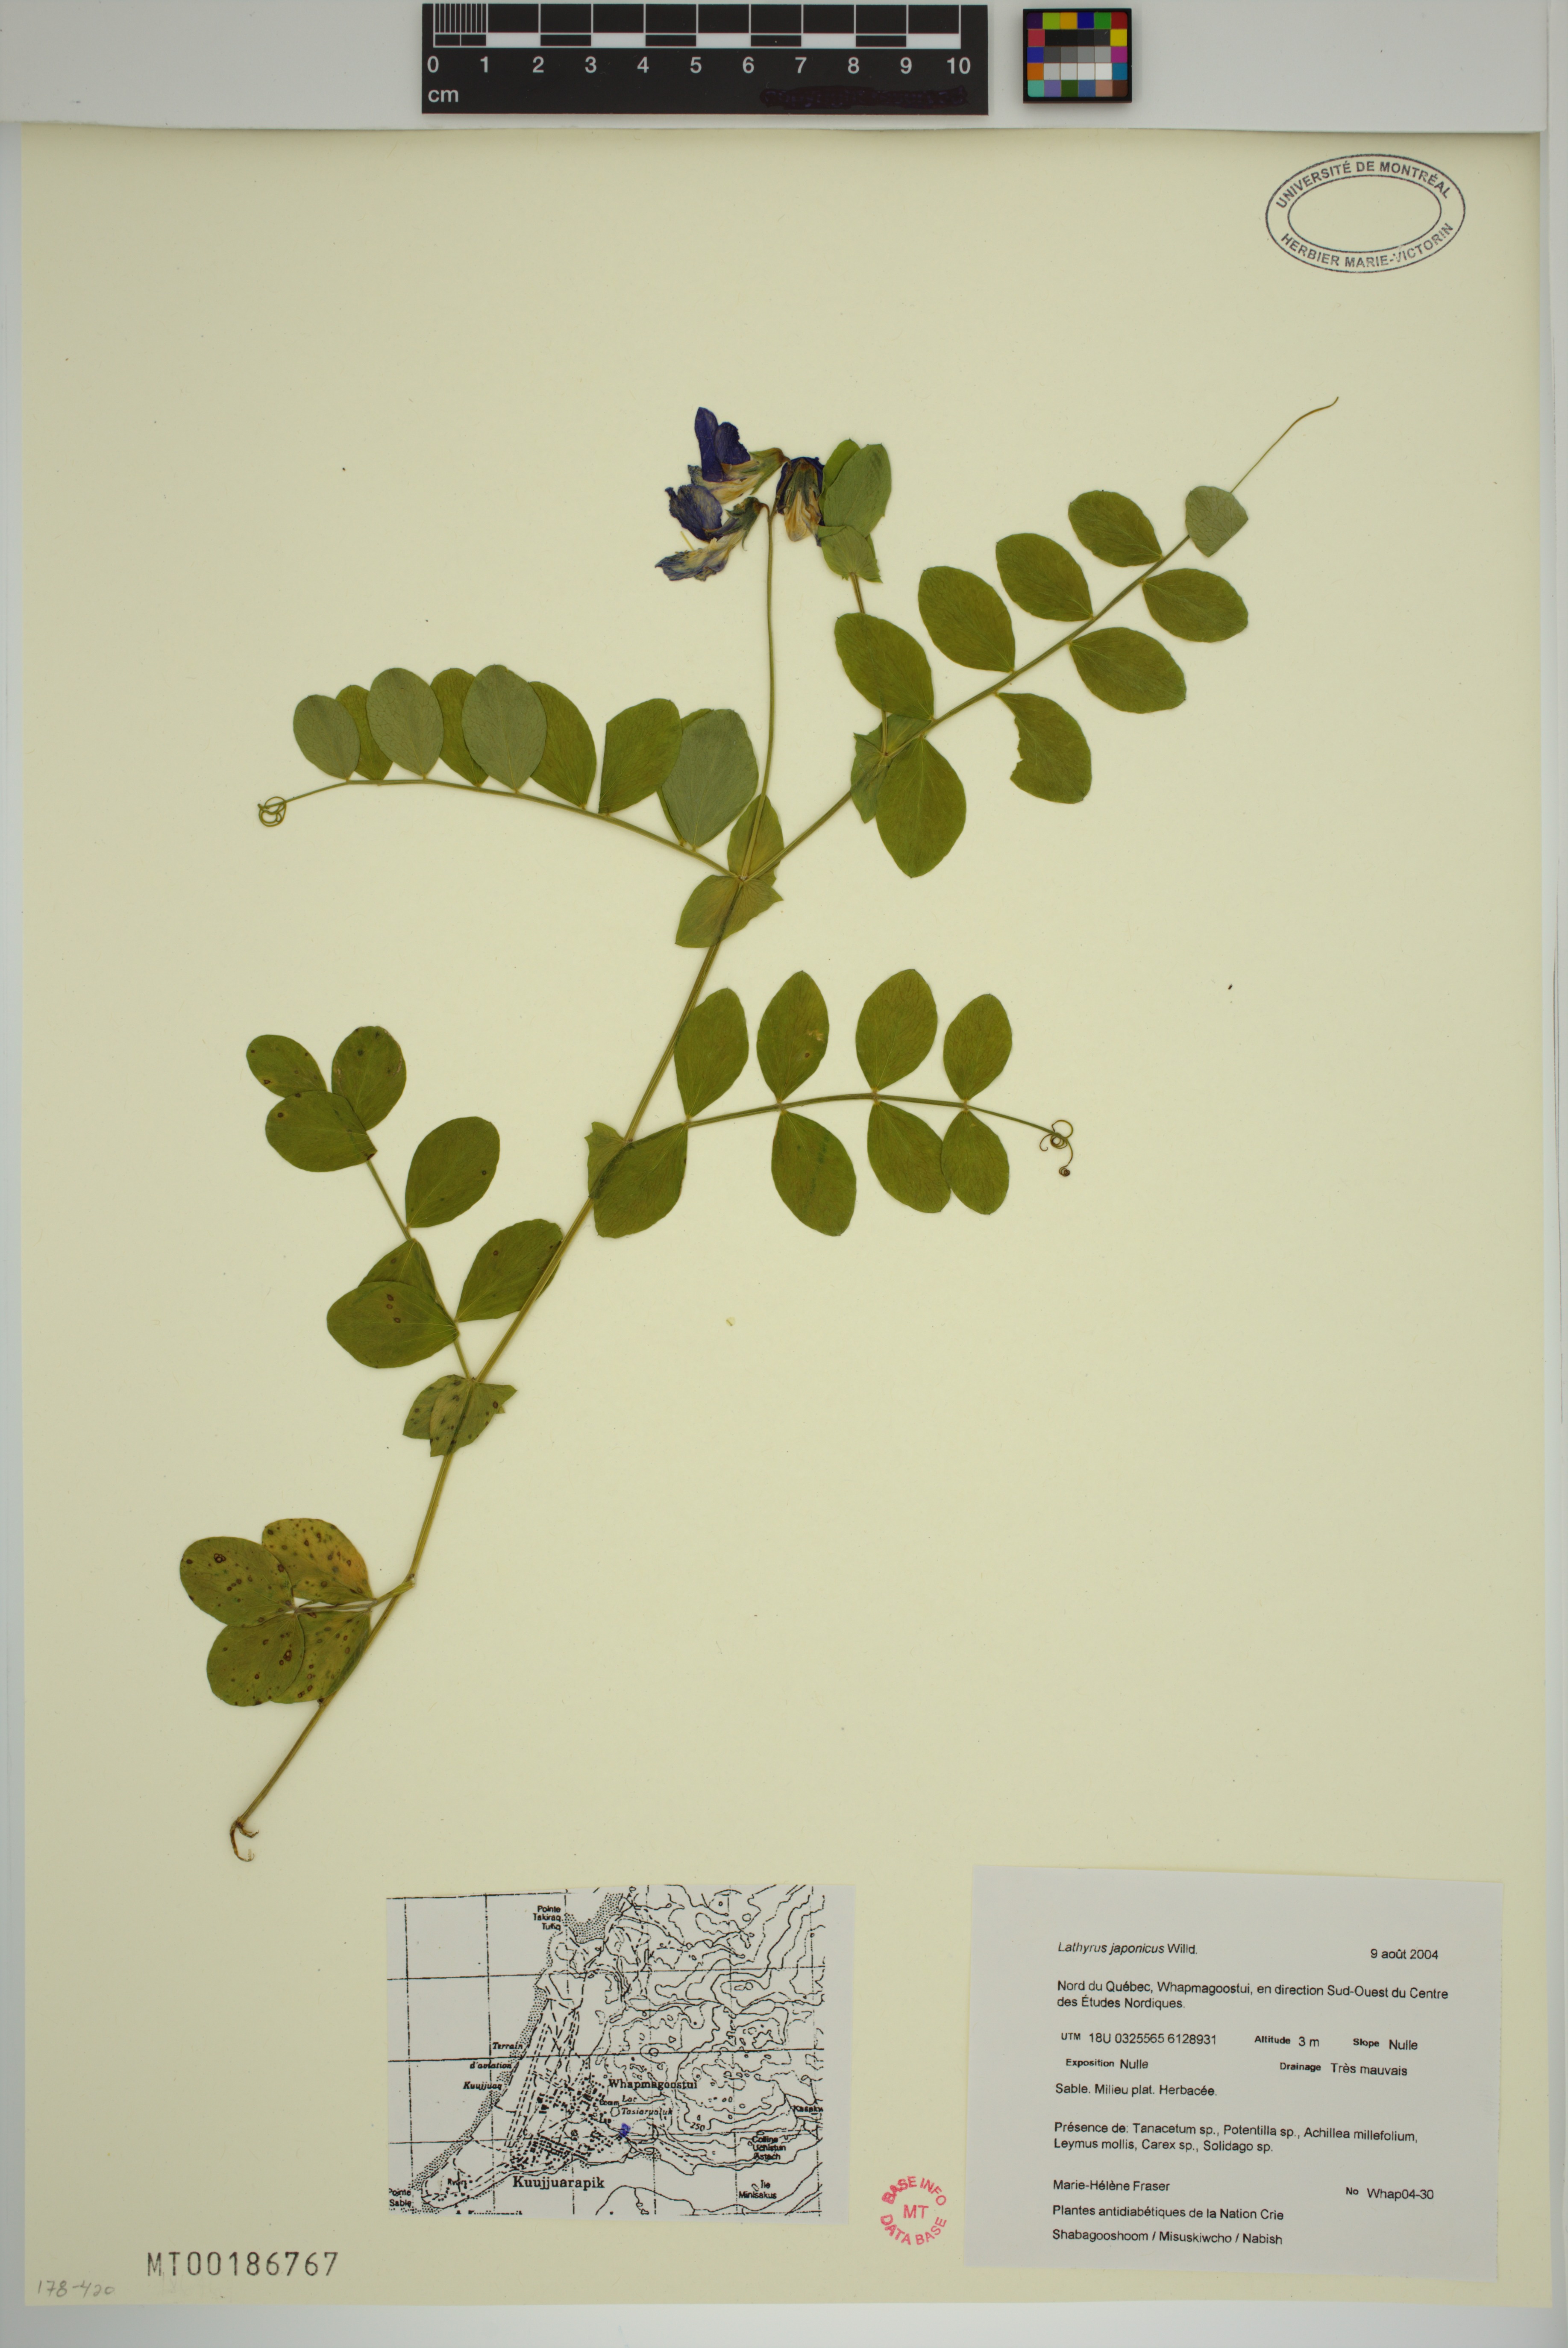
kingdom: Plantae
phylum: Tracheophyta
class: Magnoliopsida
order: Fabales
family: Fabaceae
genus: Lathyrus
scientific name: Lathyrus japonicus
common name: Sea pea
